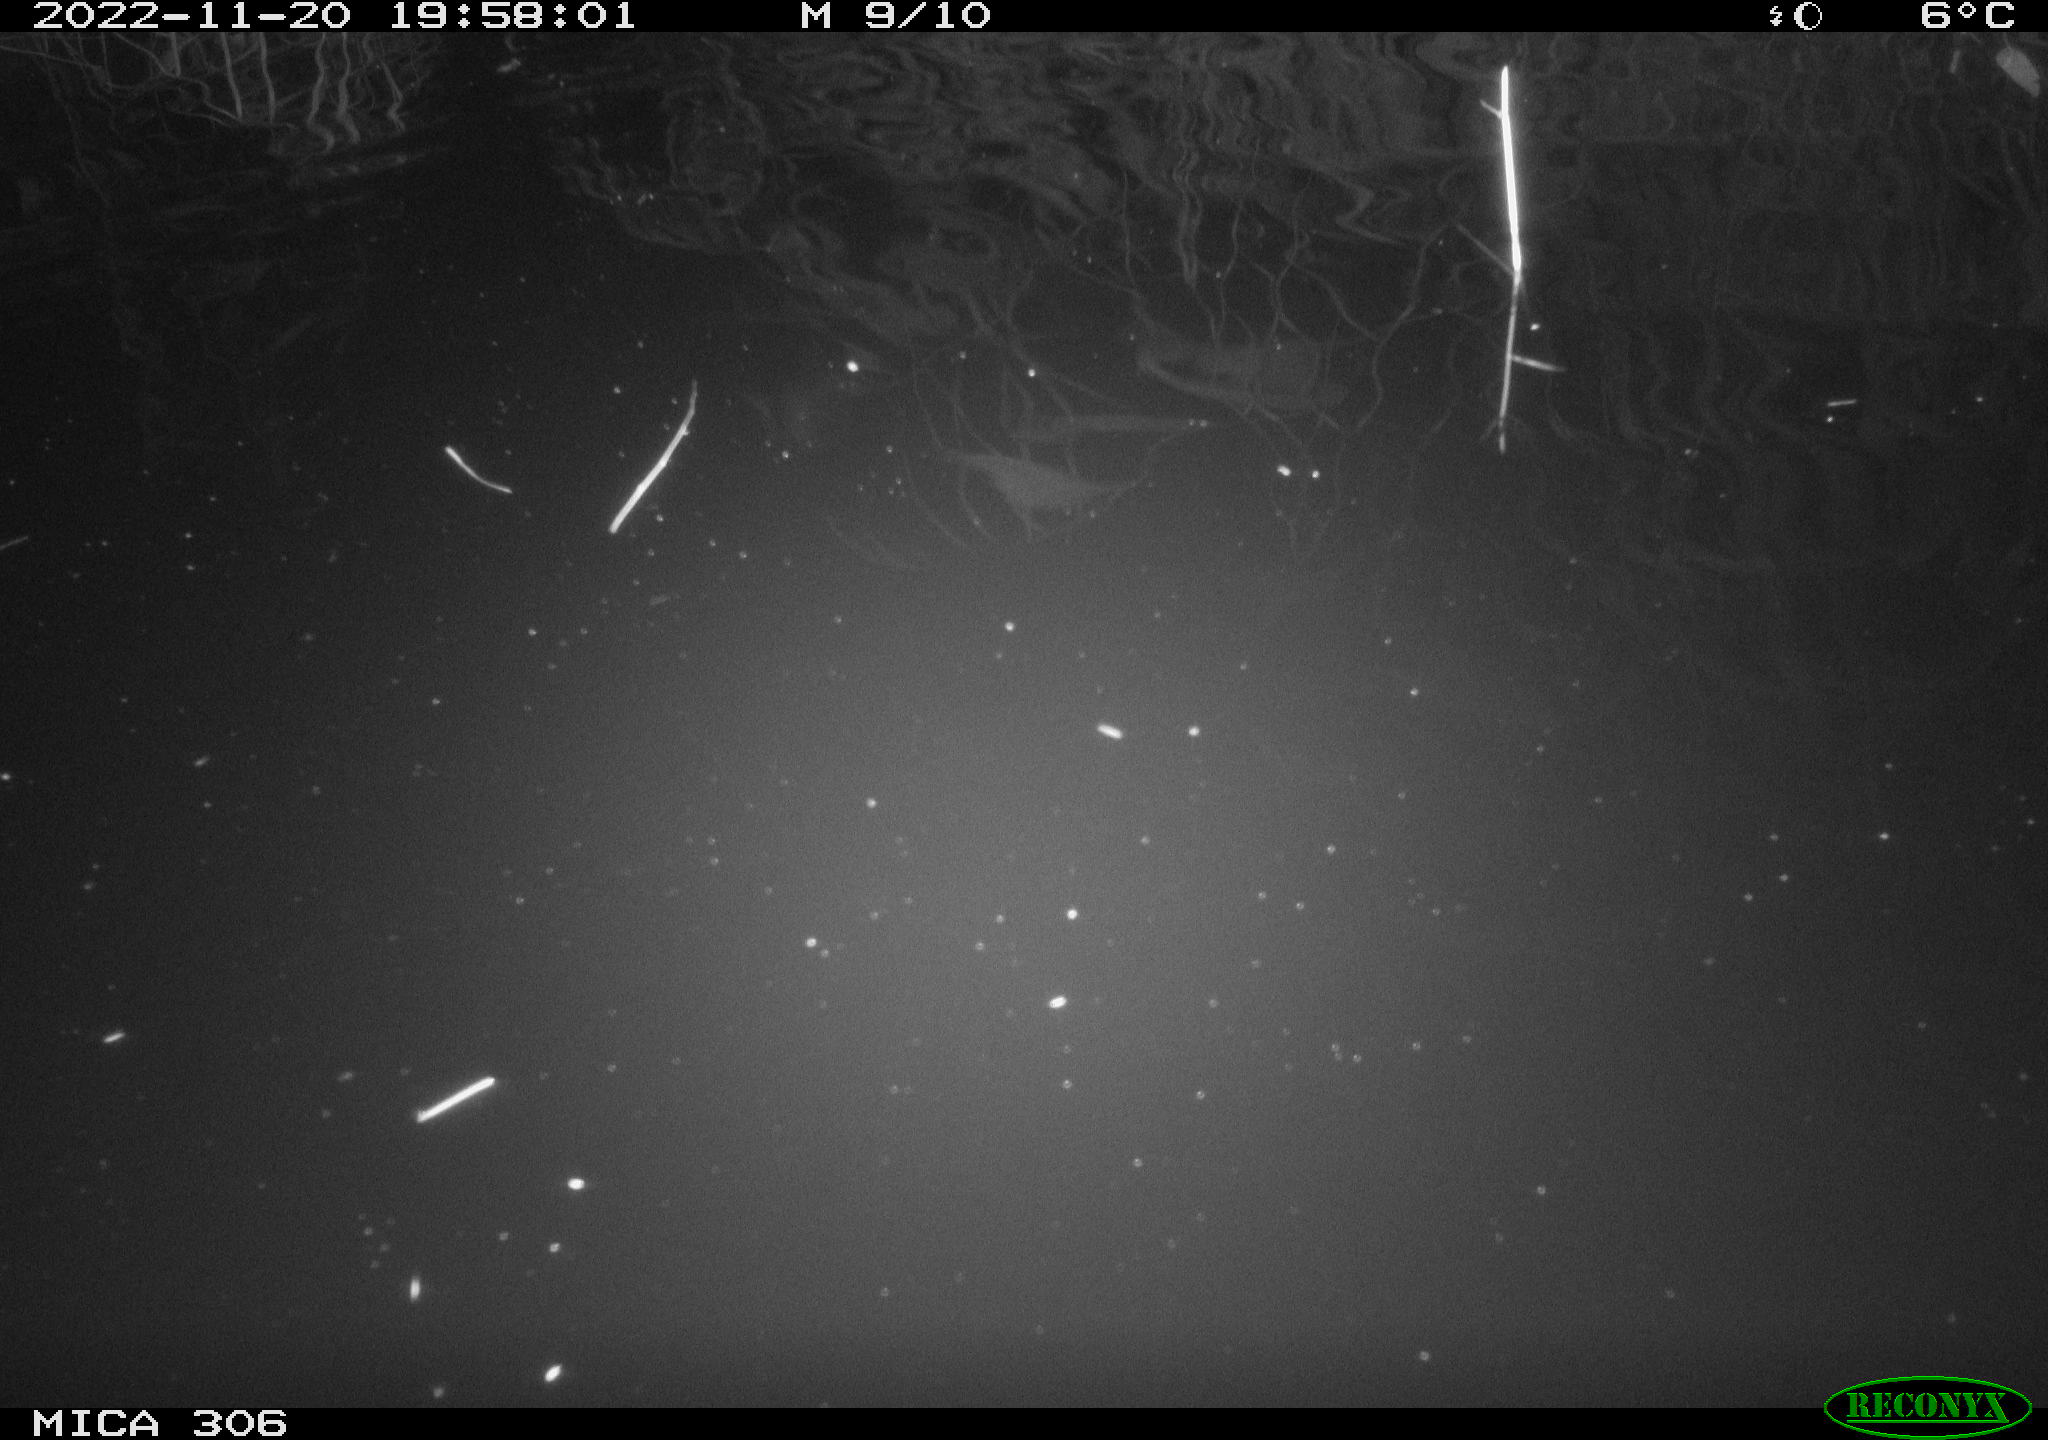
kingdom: Animalia
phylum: Chordata
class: Mammalia
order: Rodentia
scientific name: Rodentia
